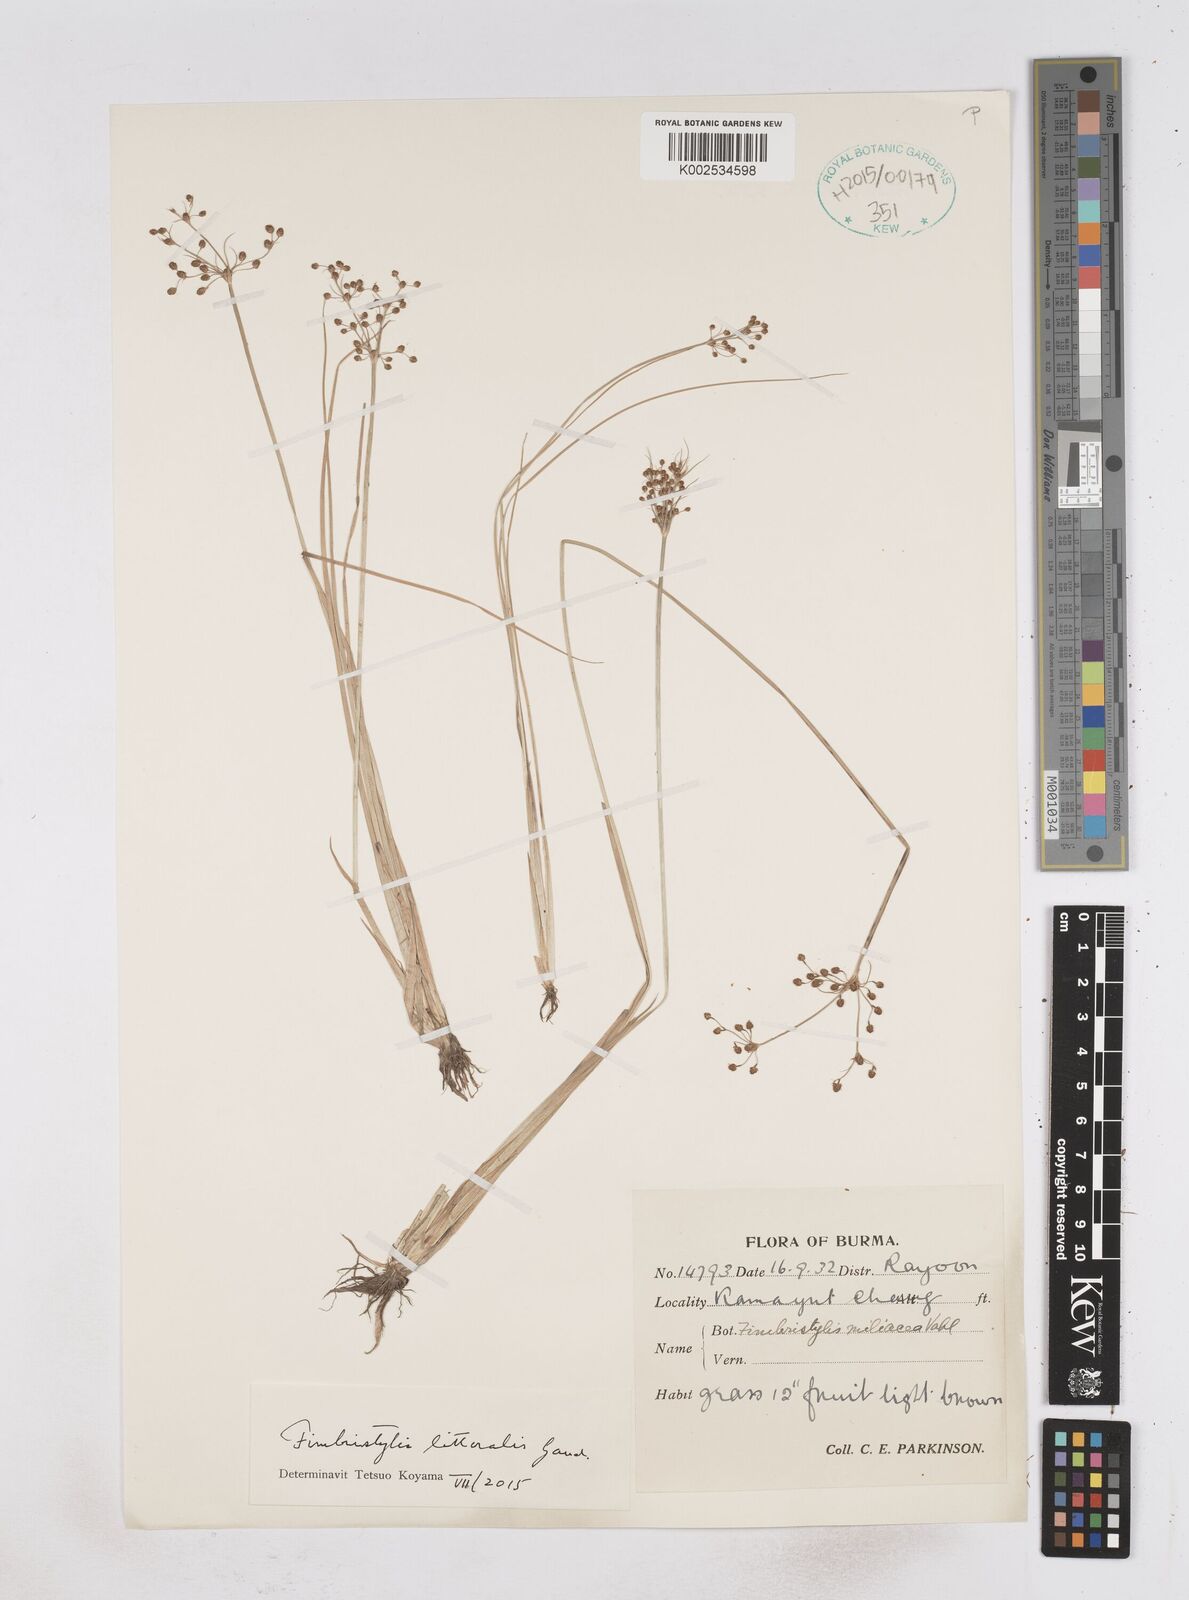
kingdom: Plantae
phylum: Tracheophyta
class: Liliopsida
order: Poales
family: Cyperaceae
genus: Fimbristylis
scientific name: Fimbristylis littoralis
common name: Fimbry
